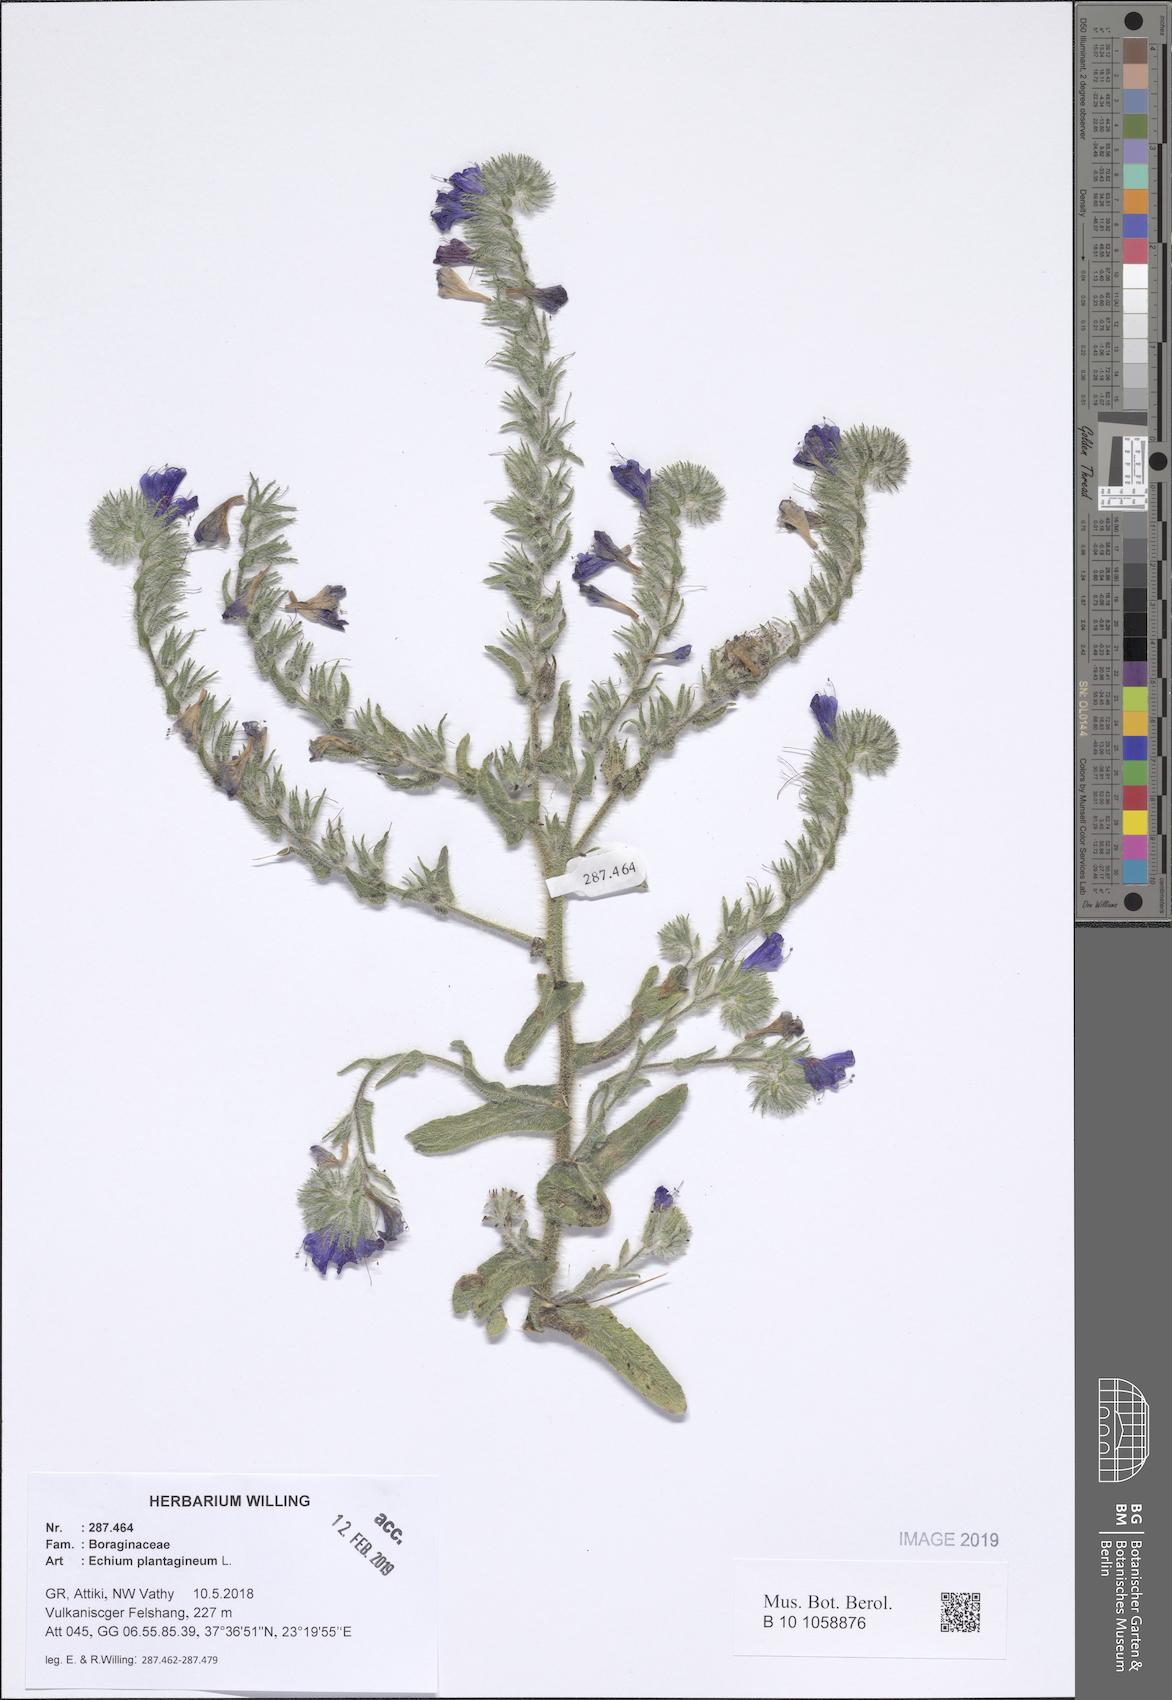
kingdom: Plantae
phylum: Tracheophyta
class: Magnoliopsida
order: Boraginales
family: Boraginaceae
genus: Echium
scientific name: Echium plantagineum
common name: Purple viper's-bugloss
